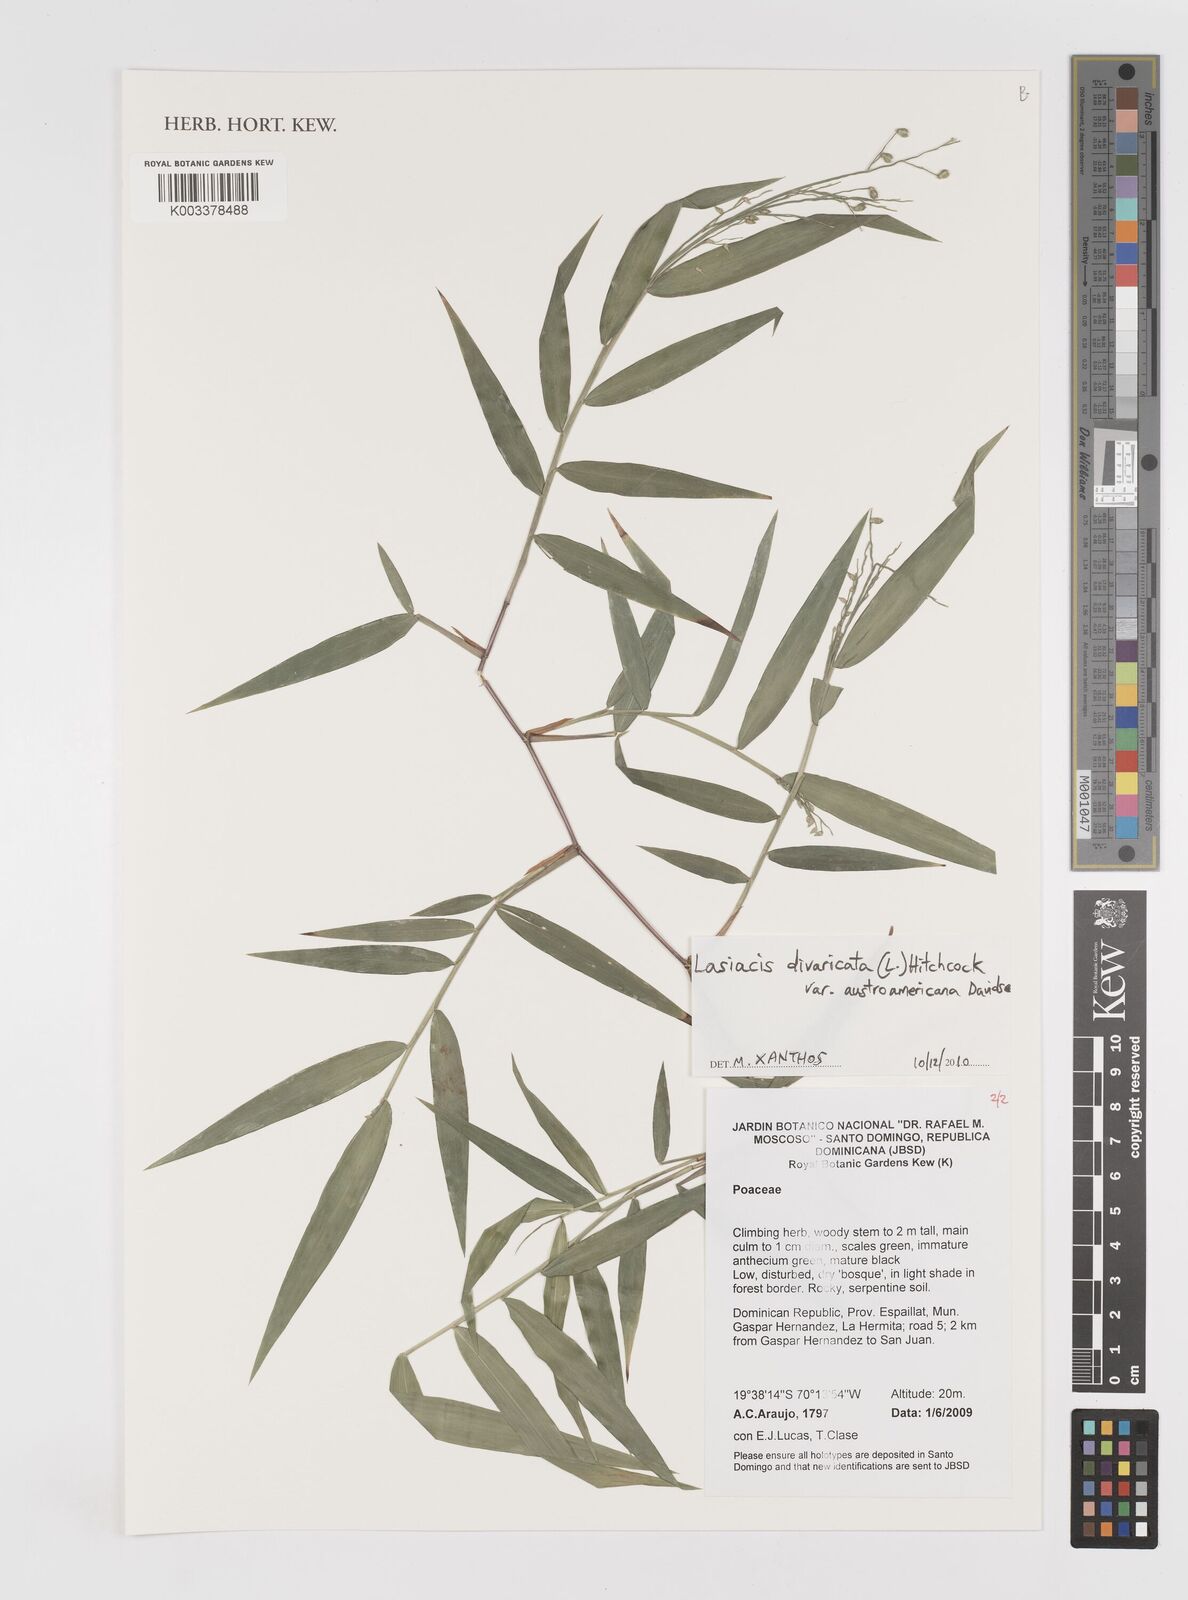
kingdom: Plantae
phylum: Tracheophyta
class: Liliopsida
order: Poales
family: Poaceae
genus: Lasiacis
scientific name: Lasiacis divaricata
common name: Smallcane
